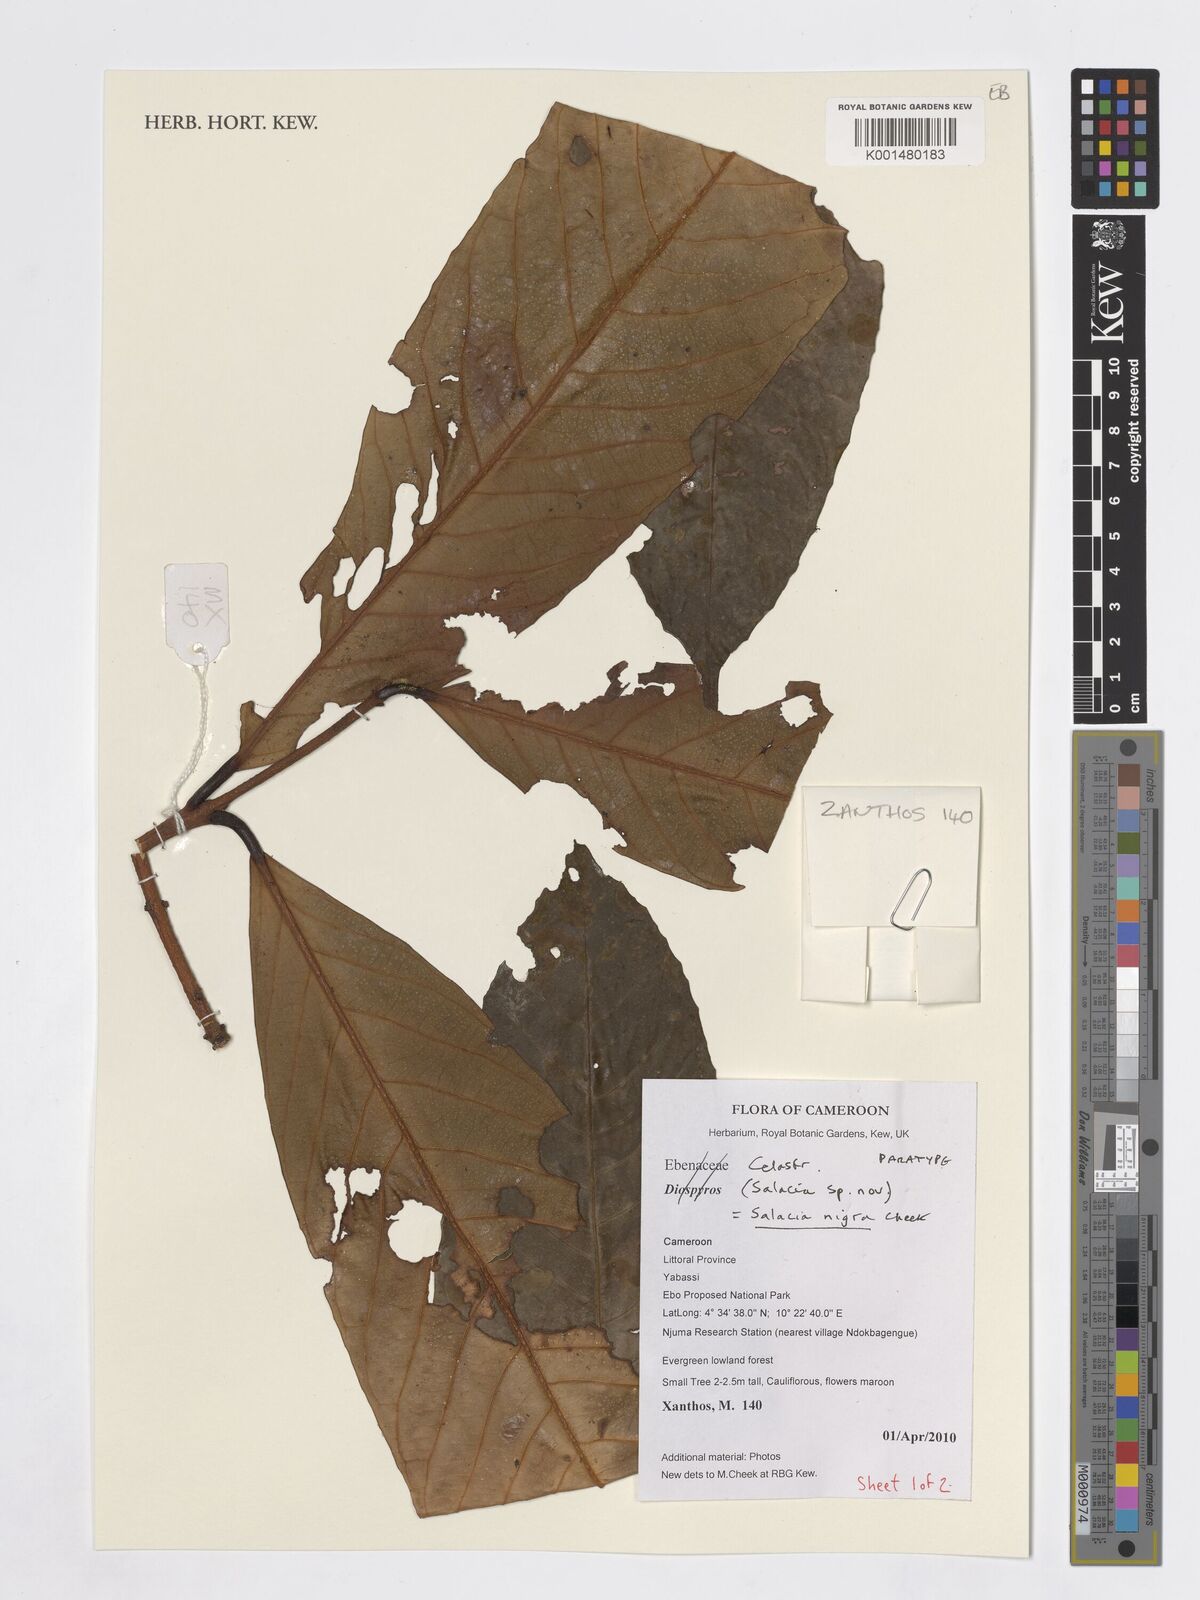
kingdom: Plantae
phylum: Tracheophyta
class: Magnoliopsida
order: Celastrales
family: Celastraceae
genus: Salacia
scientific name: Salacia nigra
